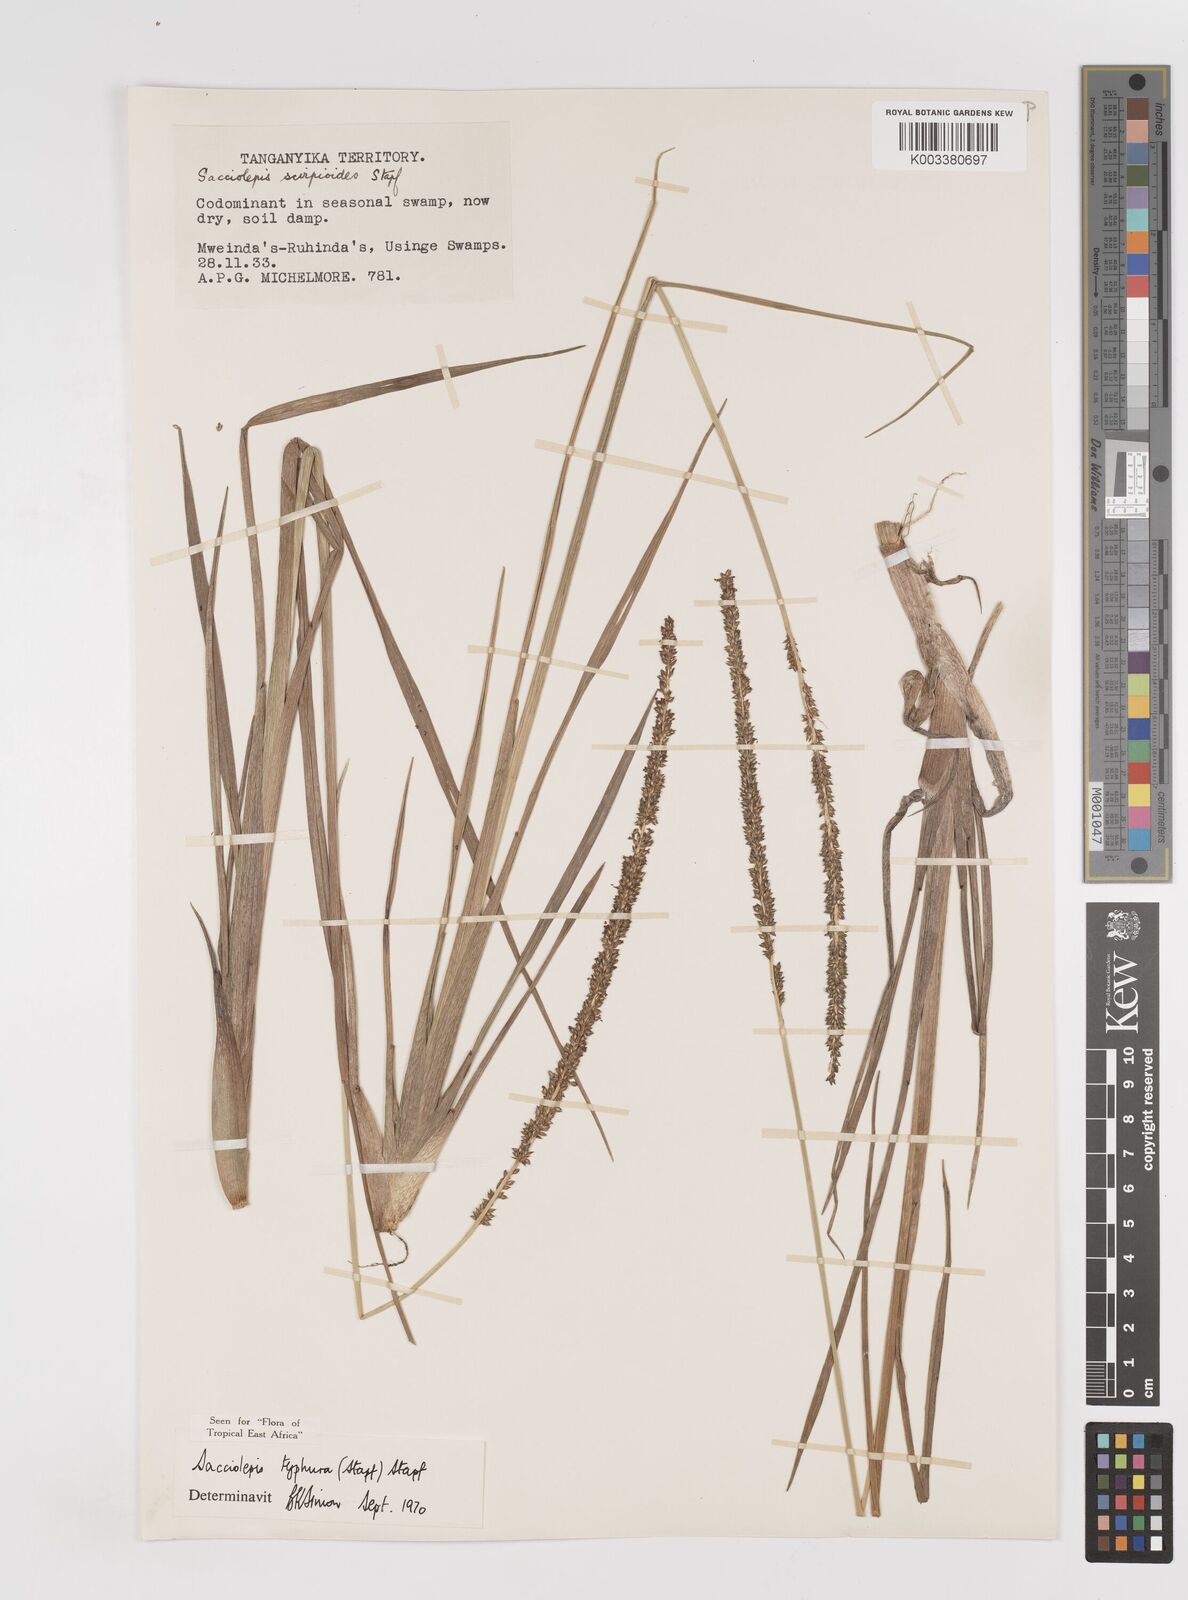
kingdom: Plantae
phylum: Tracheophyta
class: Liliopsida
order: Poales
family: Poaceae
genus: Sacciolepis
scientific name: Sacciolepis typhura
